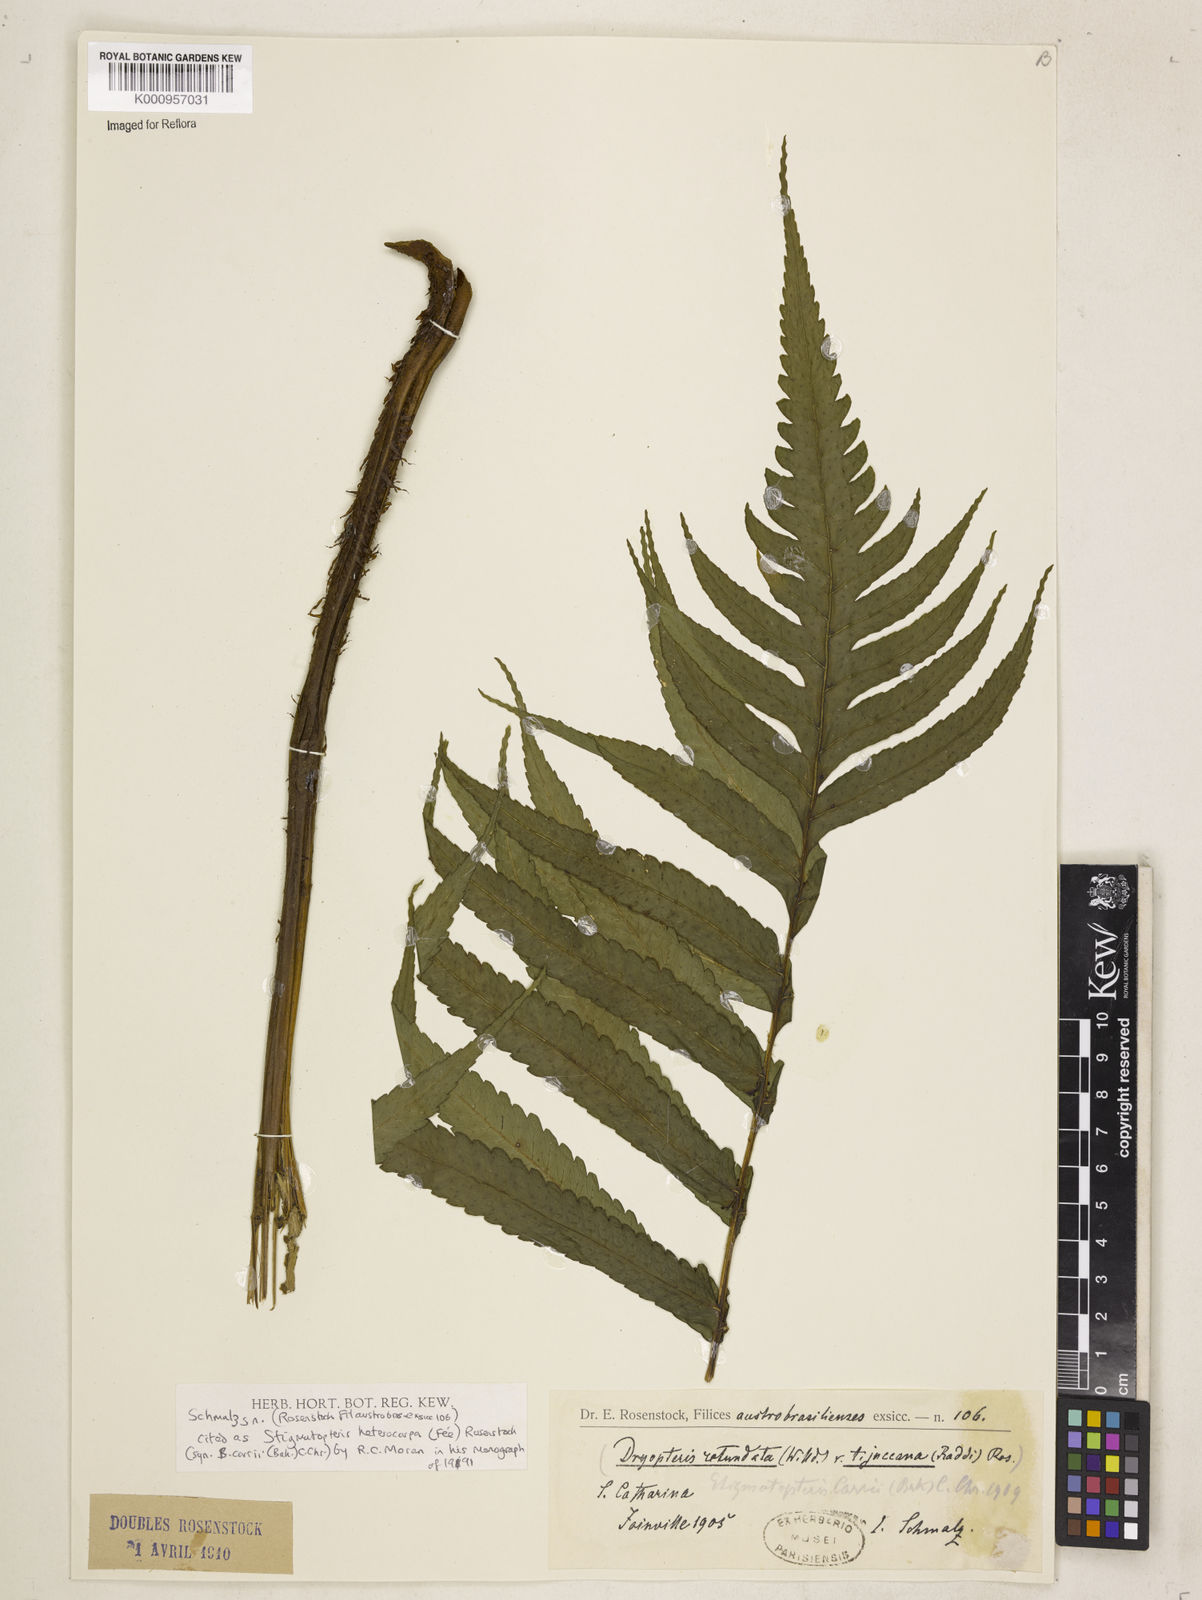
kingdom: Plantae
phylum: Tracheophyta
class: Polypodiopsida
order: Polypodiales
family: Dryopteridaceae
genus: Stigmatopteris
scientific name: Stigmatopteris
